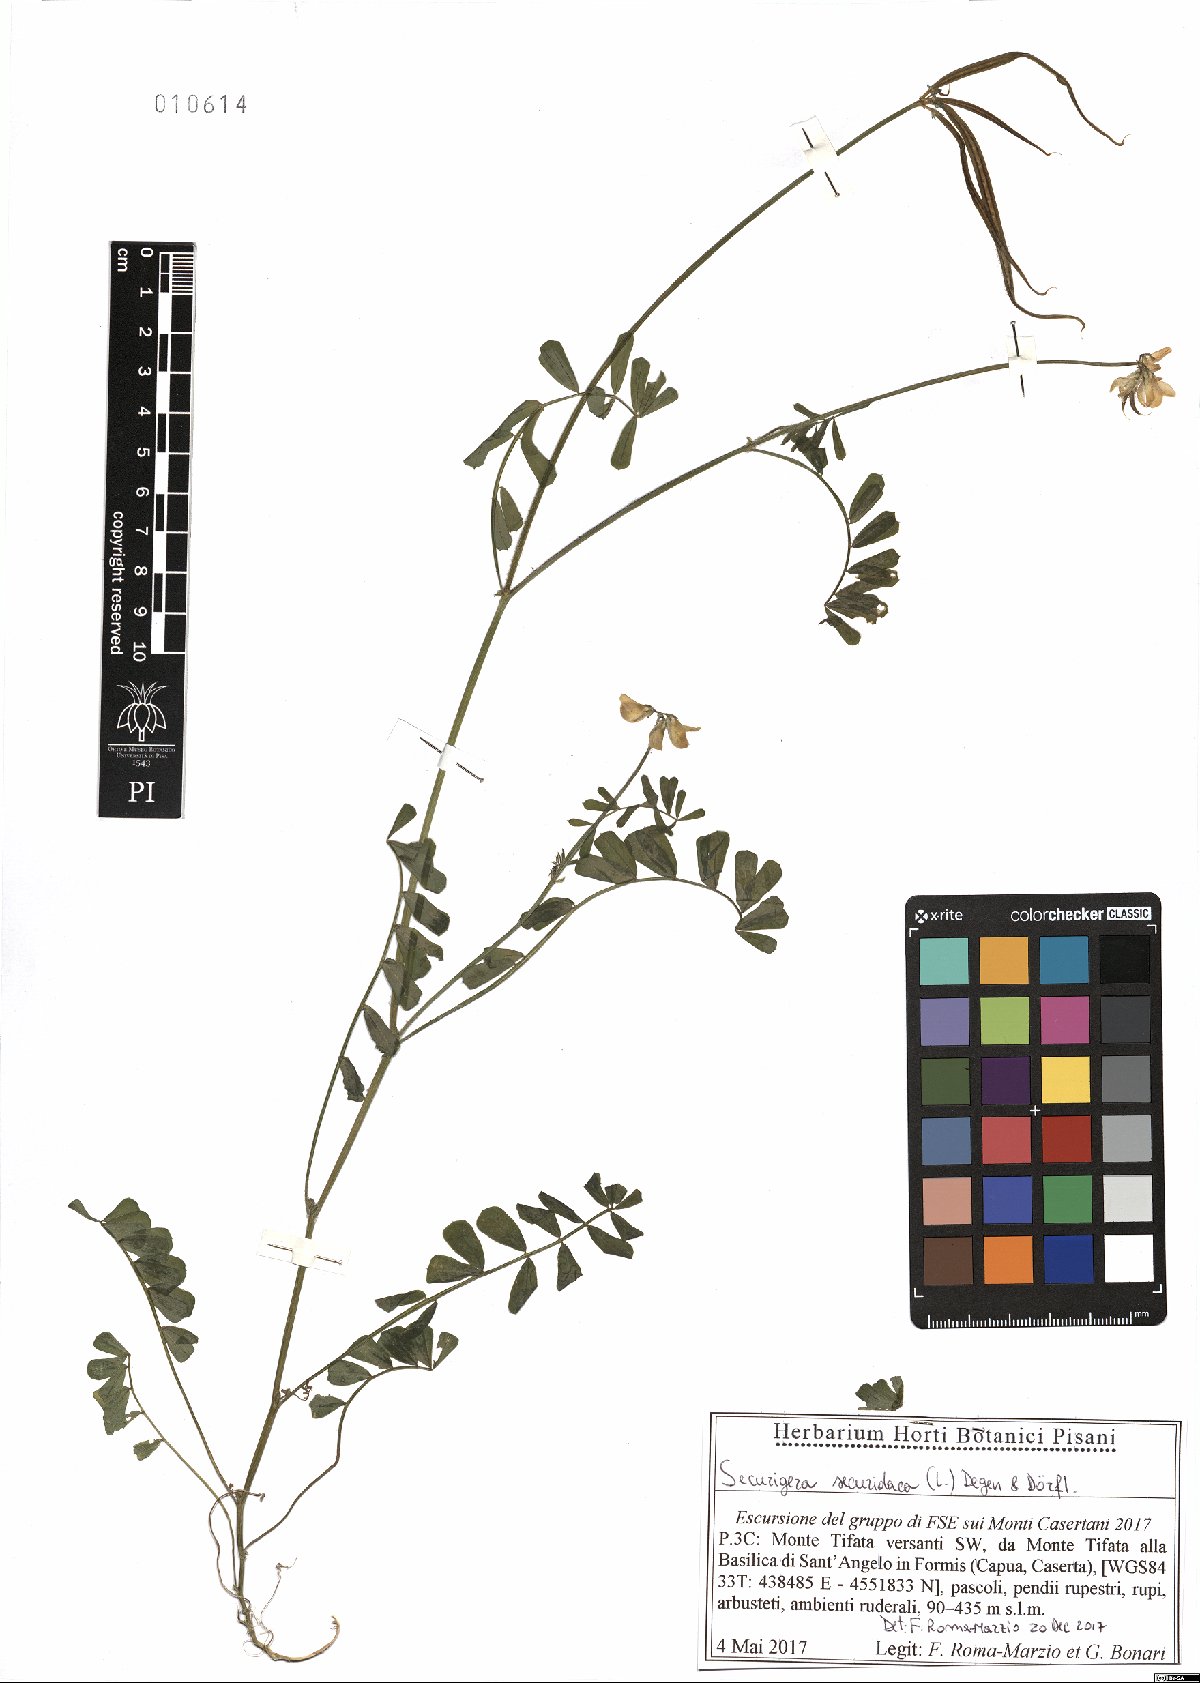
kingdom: Plantae
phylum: Tracheophyta
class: Magnoliopsida
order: Fabales
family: Fabaceae
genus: Coronilla
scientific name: Coronilla securidaca
